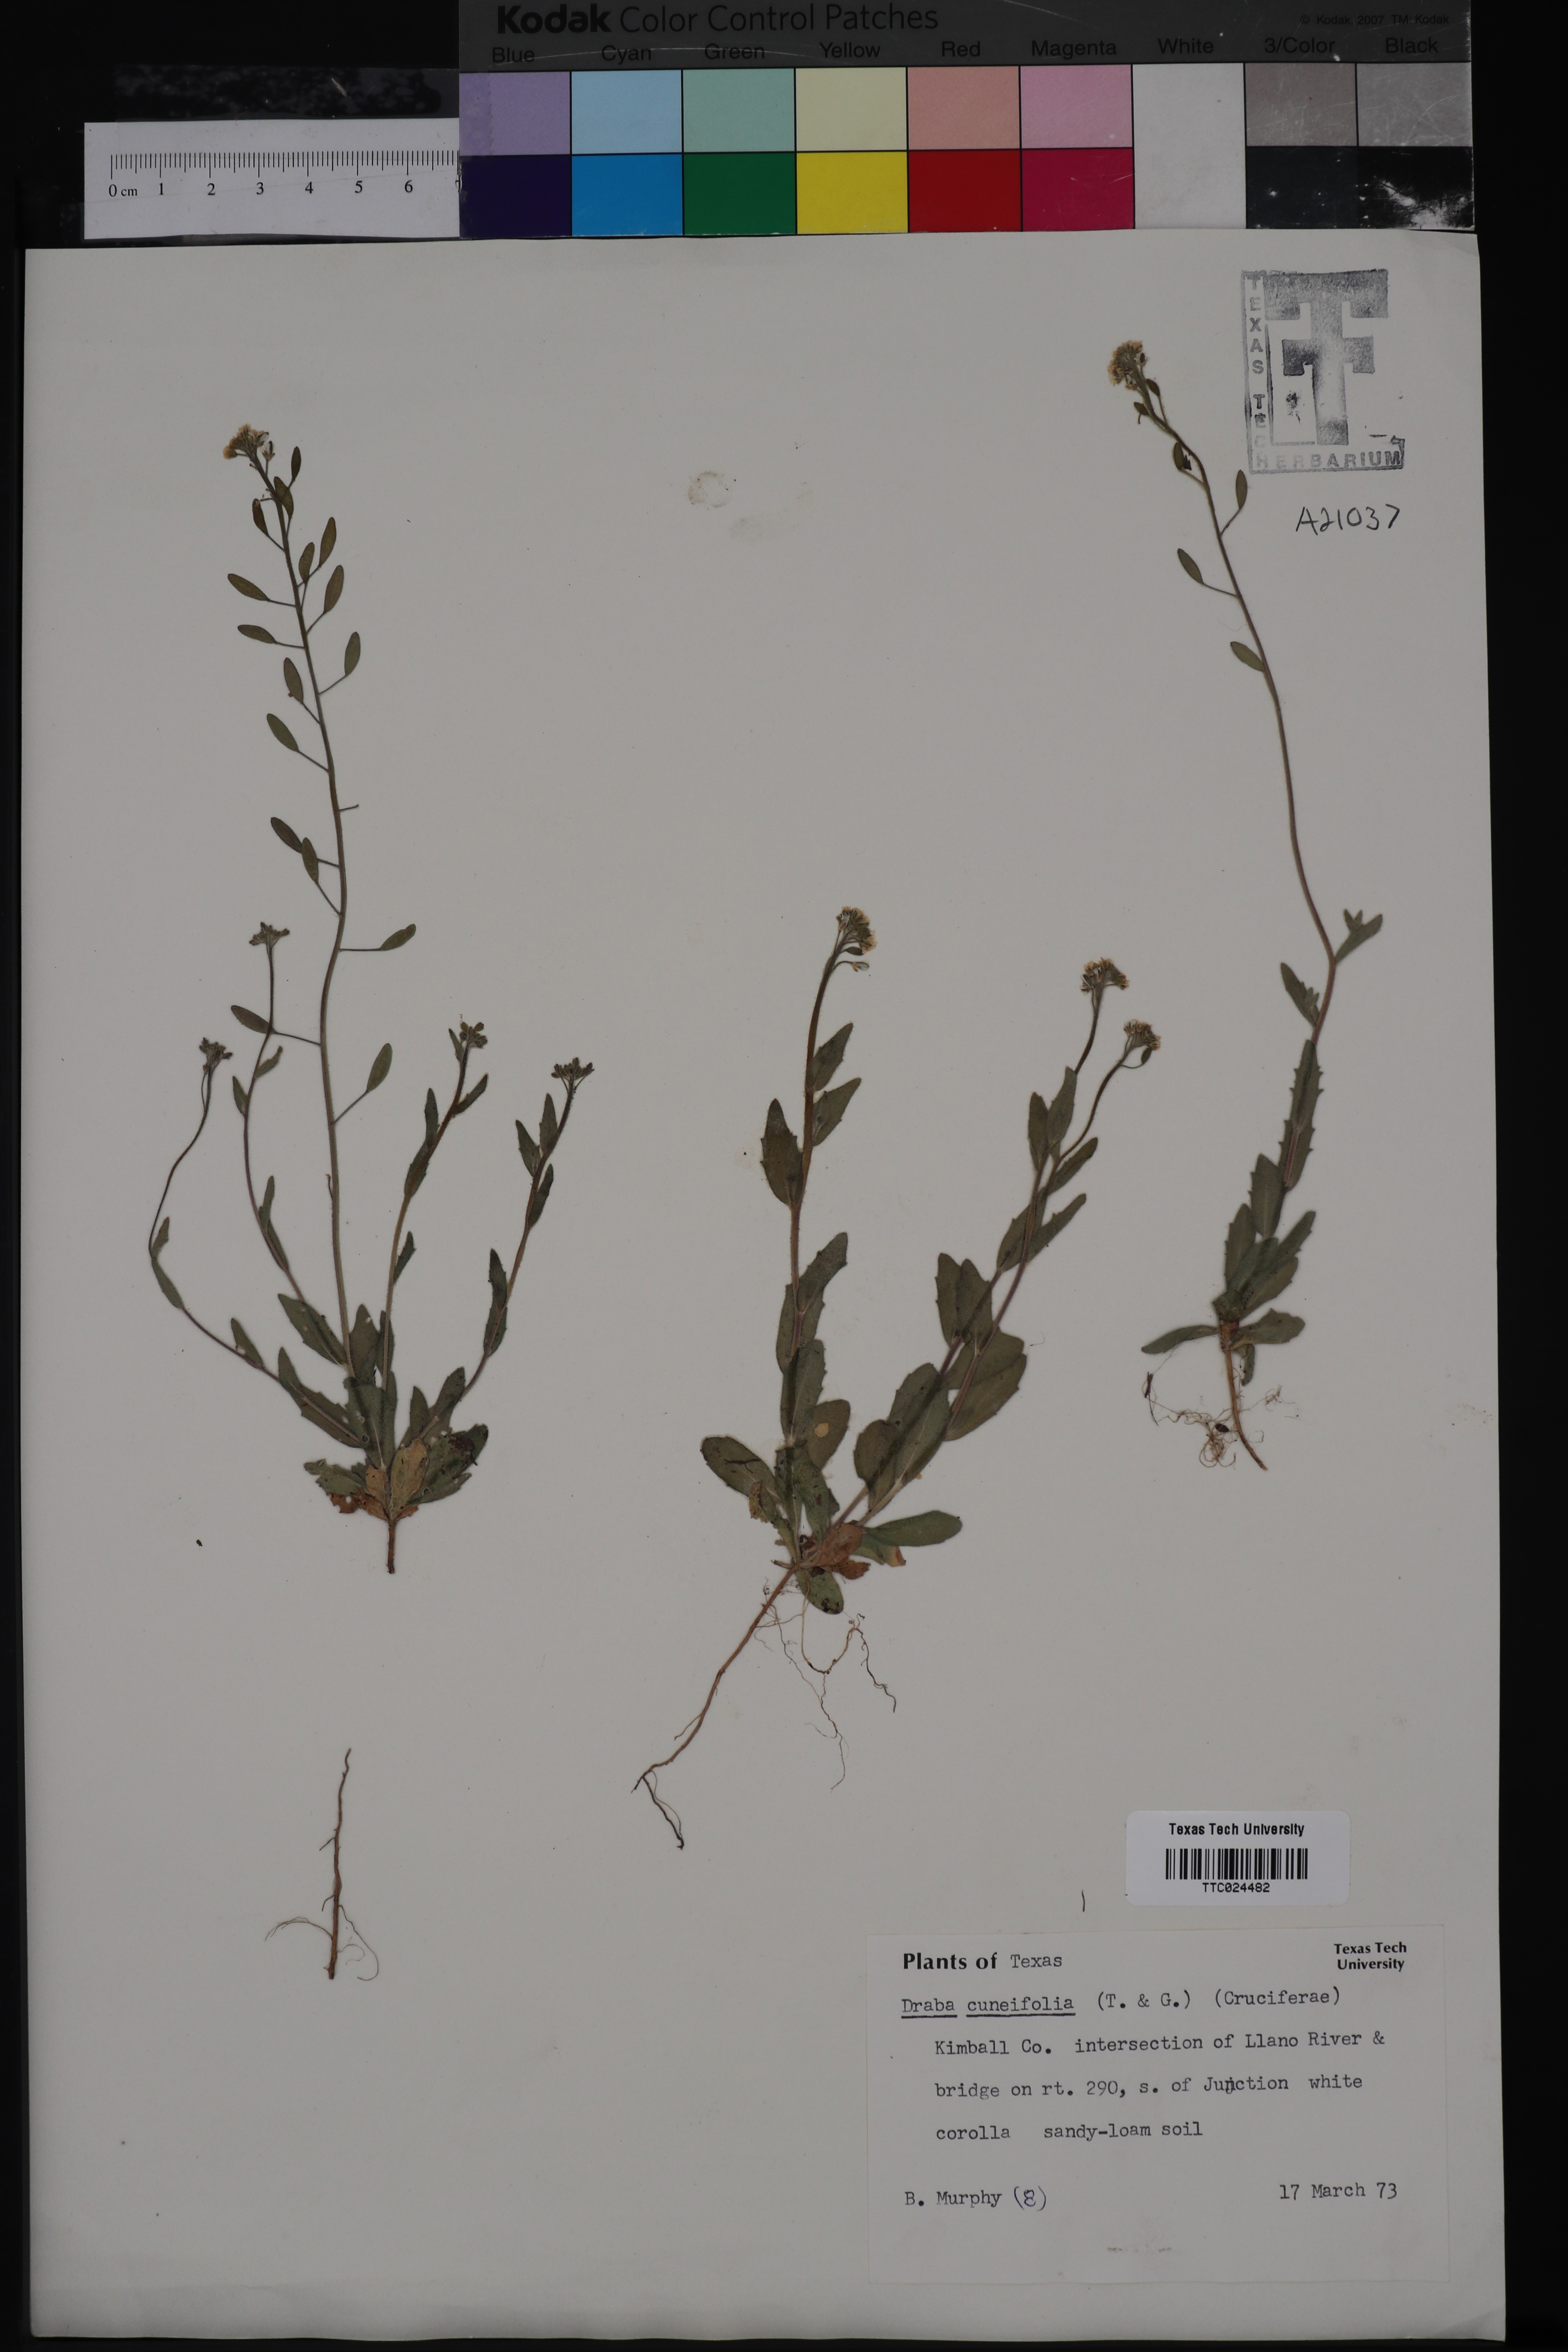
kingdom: Plantae
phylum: Tracheophyta
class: Magnoliopsida
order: Brassicales
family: Brassicaceae
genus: Tomostima
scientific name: Tomostima cuneifolia
